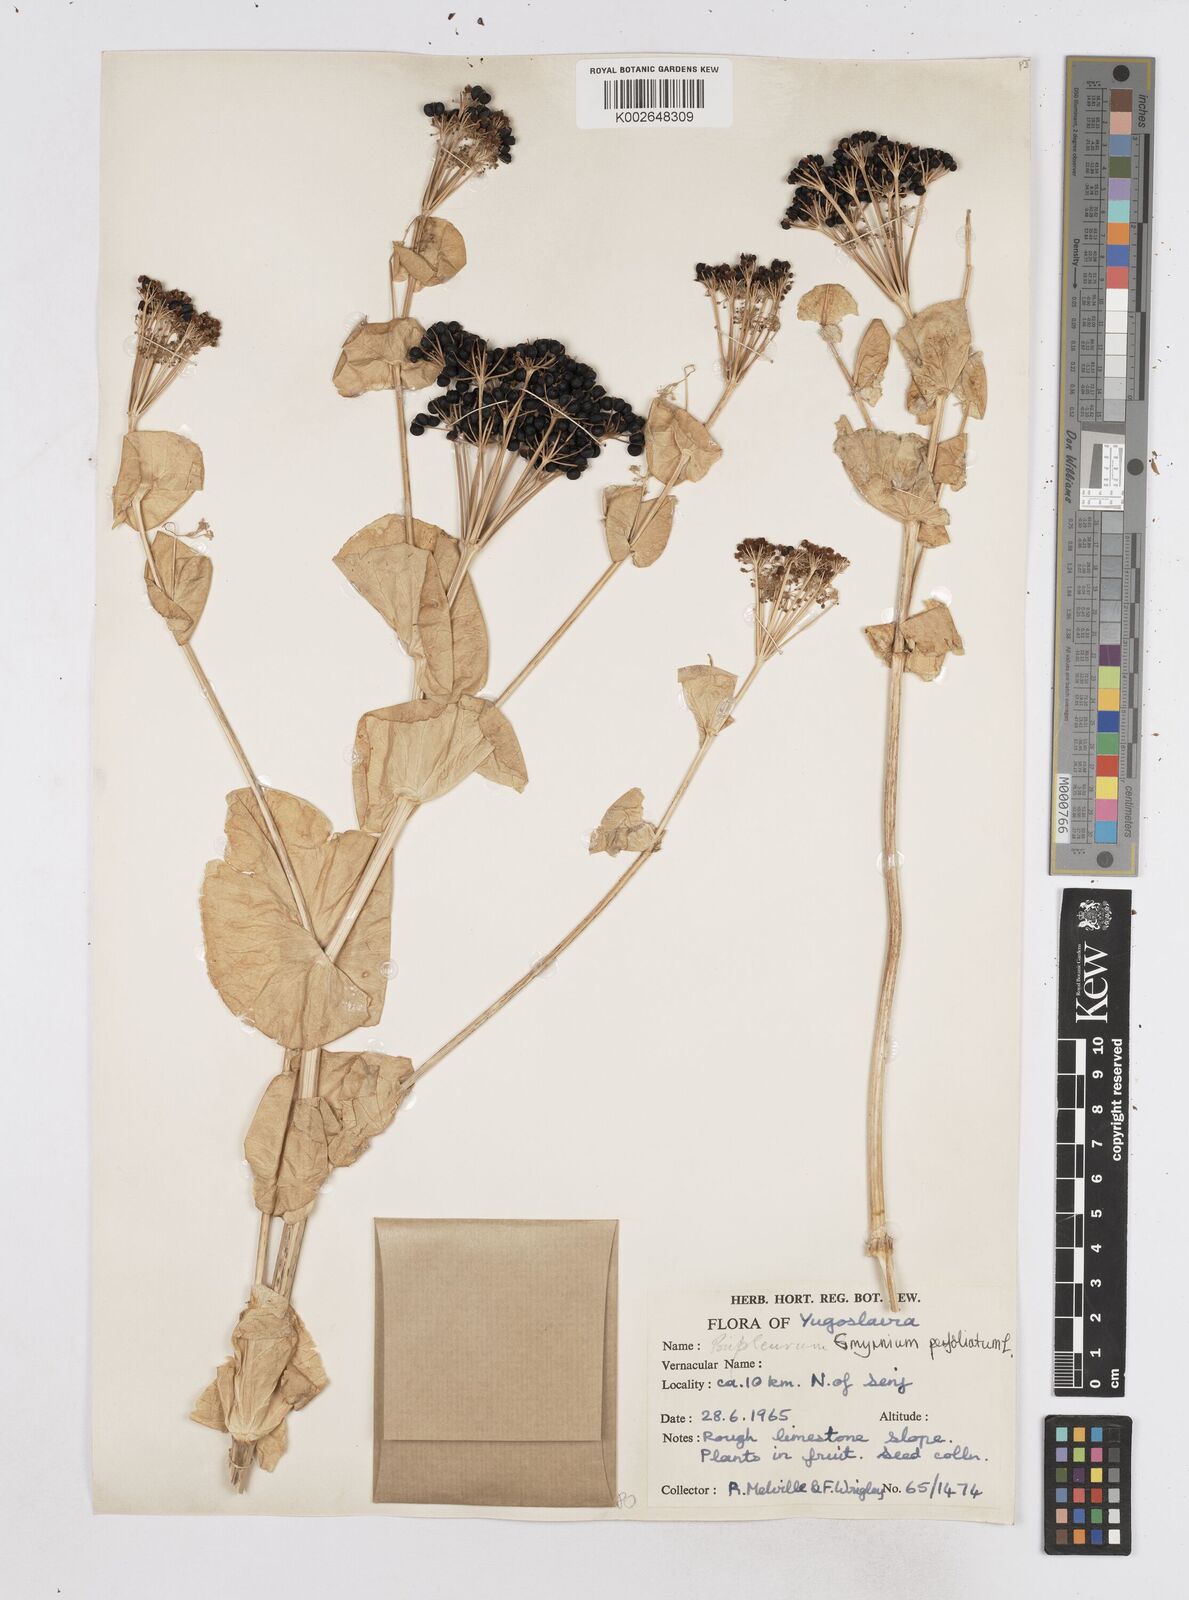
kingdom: Plantae
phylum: Tracheophyta
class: Magnoliopsida
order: Apiales
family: Apiaceae
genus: Smyrnium
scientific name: Smyrnium perfoliatum
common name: Perfoliate alexanders
